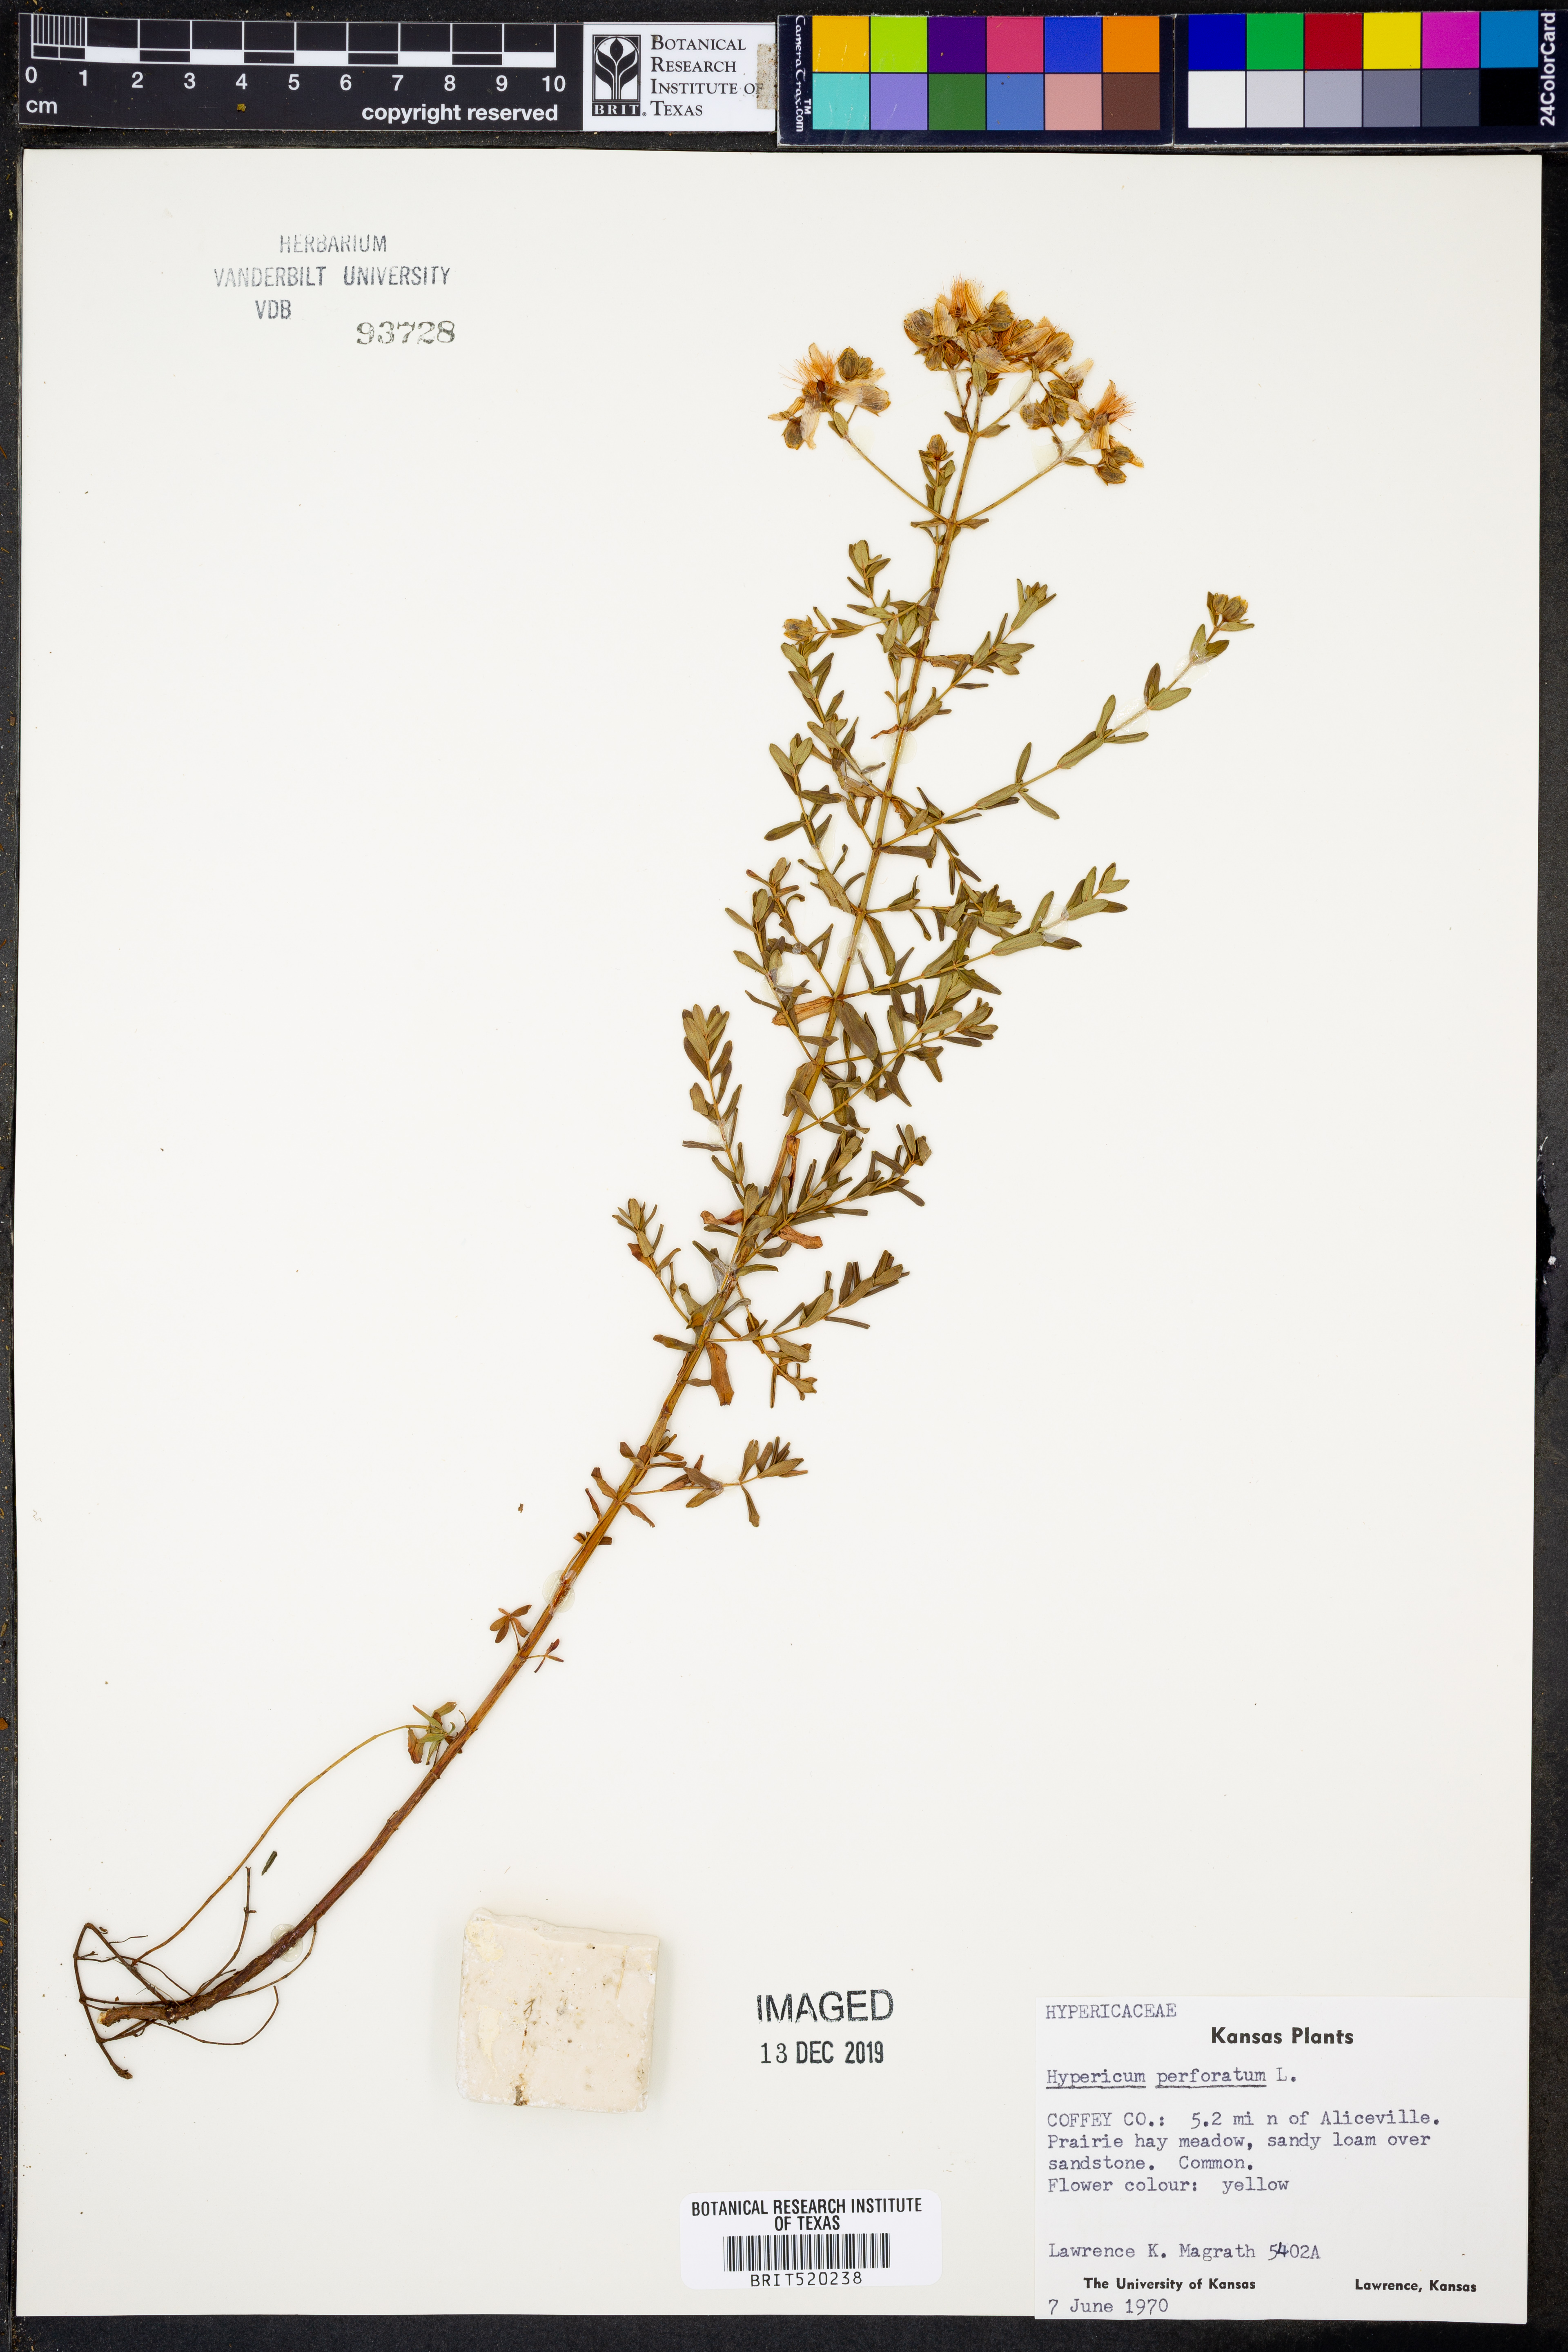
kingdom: Plantae
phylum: Tracheophyta
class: Magnoliopsida
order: Malpighiales
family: Hypericaceae
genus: Hypericum
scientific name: Hypericum perforatum
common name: Common st. johnswort
